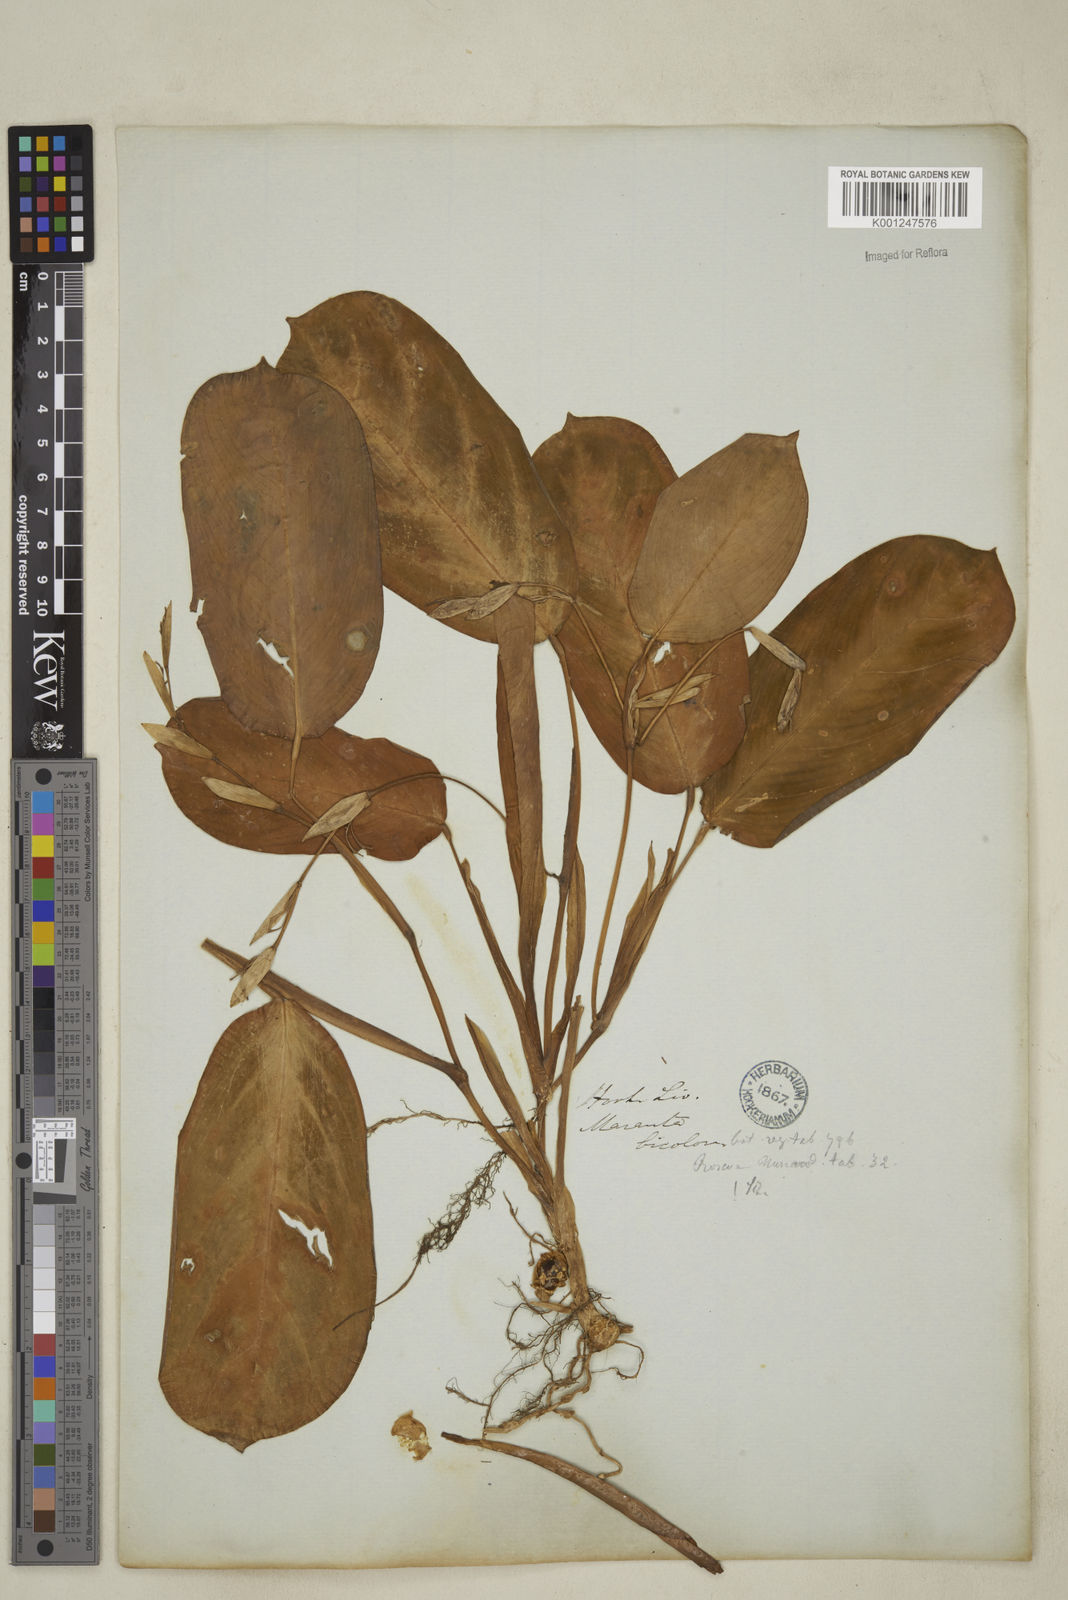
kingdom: Plantae
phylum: Tracheophyta
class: Liliopsida
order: Zingiberales
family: Marantaceae
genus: Maranta
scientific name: Maranta cristata
